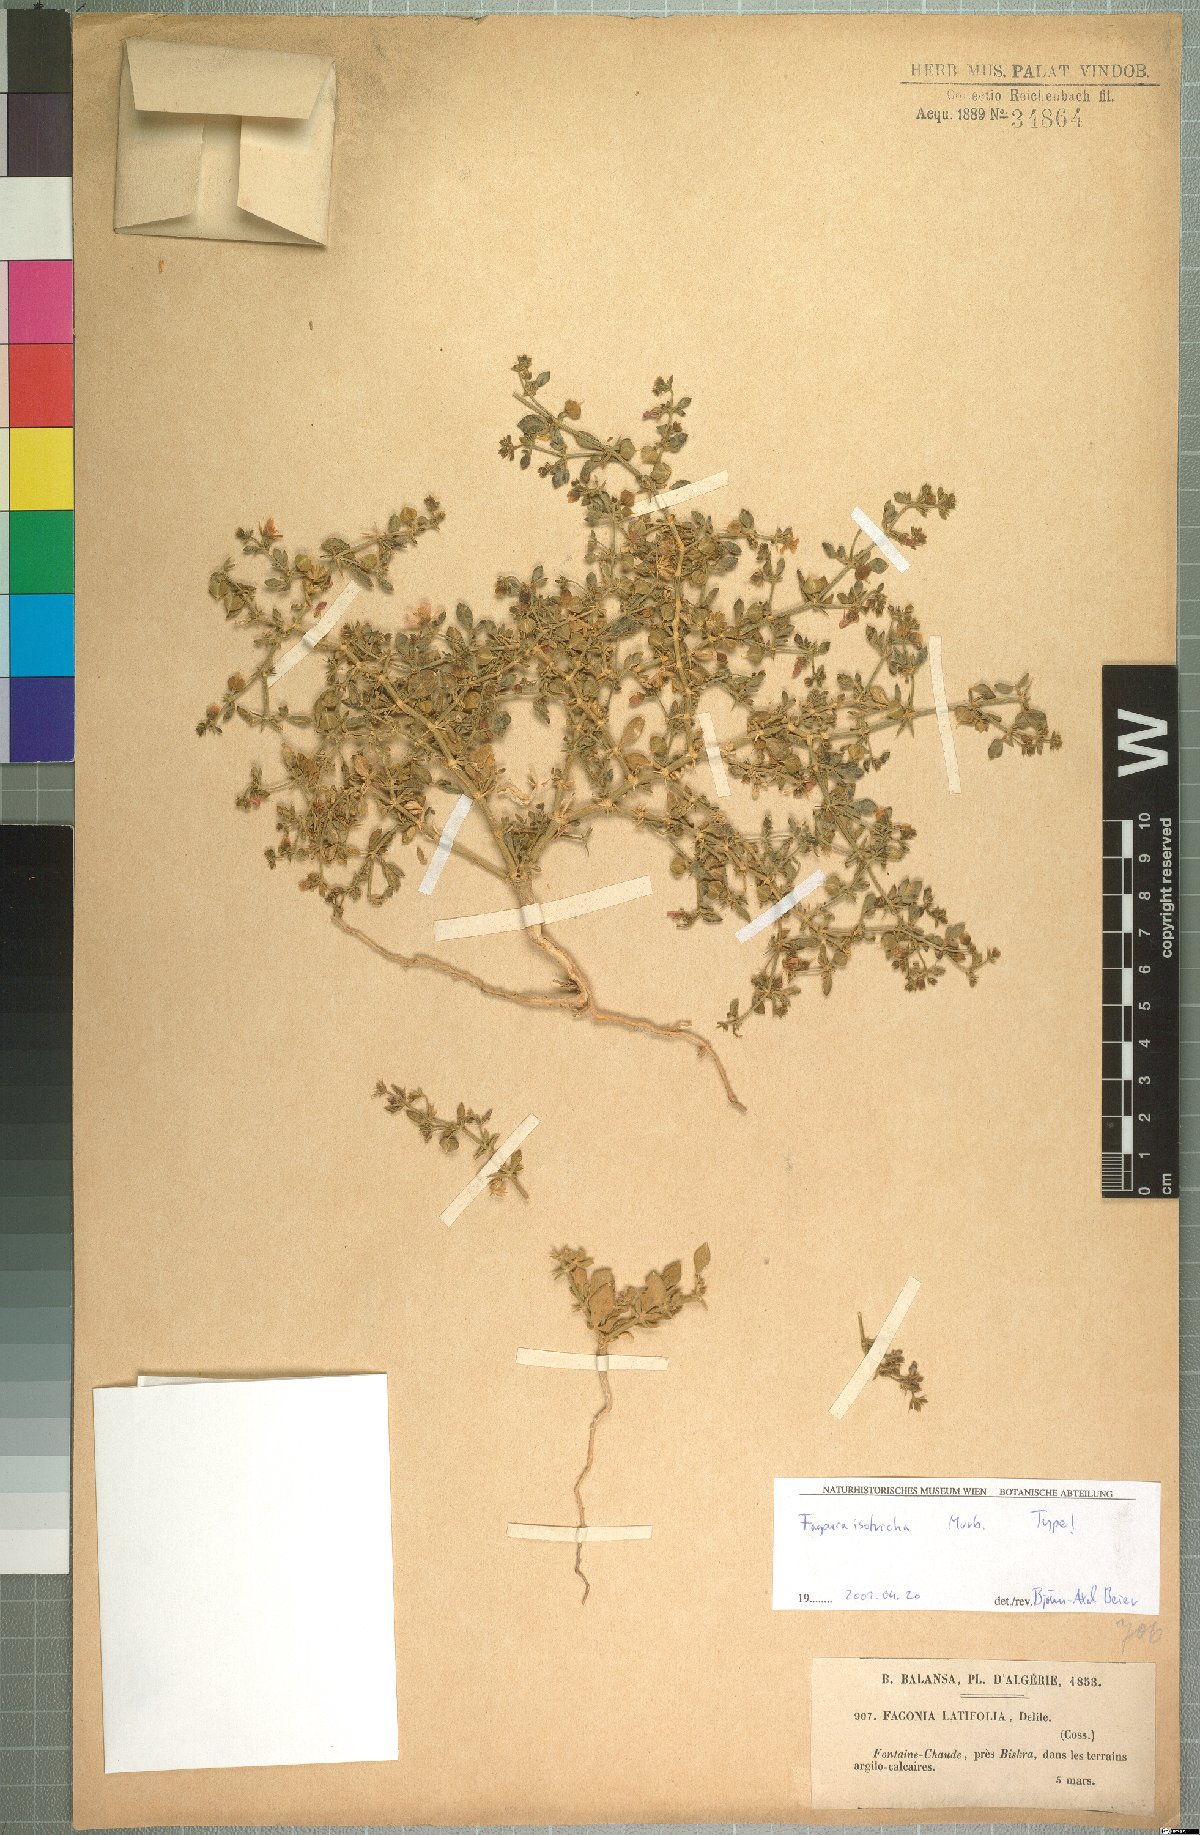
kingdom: Plantae
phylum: Tracheophyta
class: Magnoliopsida
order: Zygophyllales
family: Zygophyllaceae
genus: Fagonia
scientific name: Fagonia latifolia
